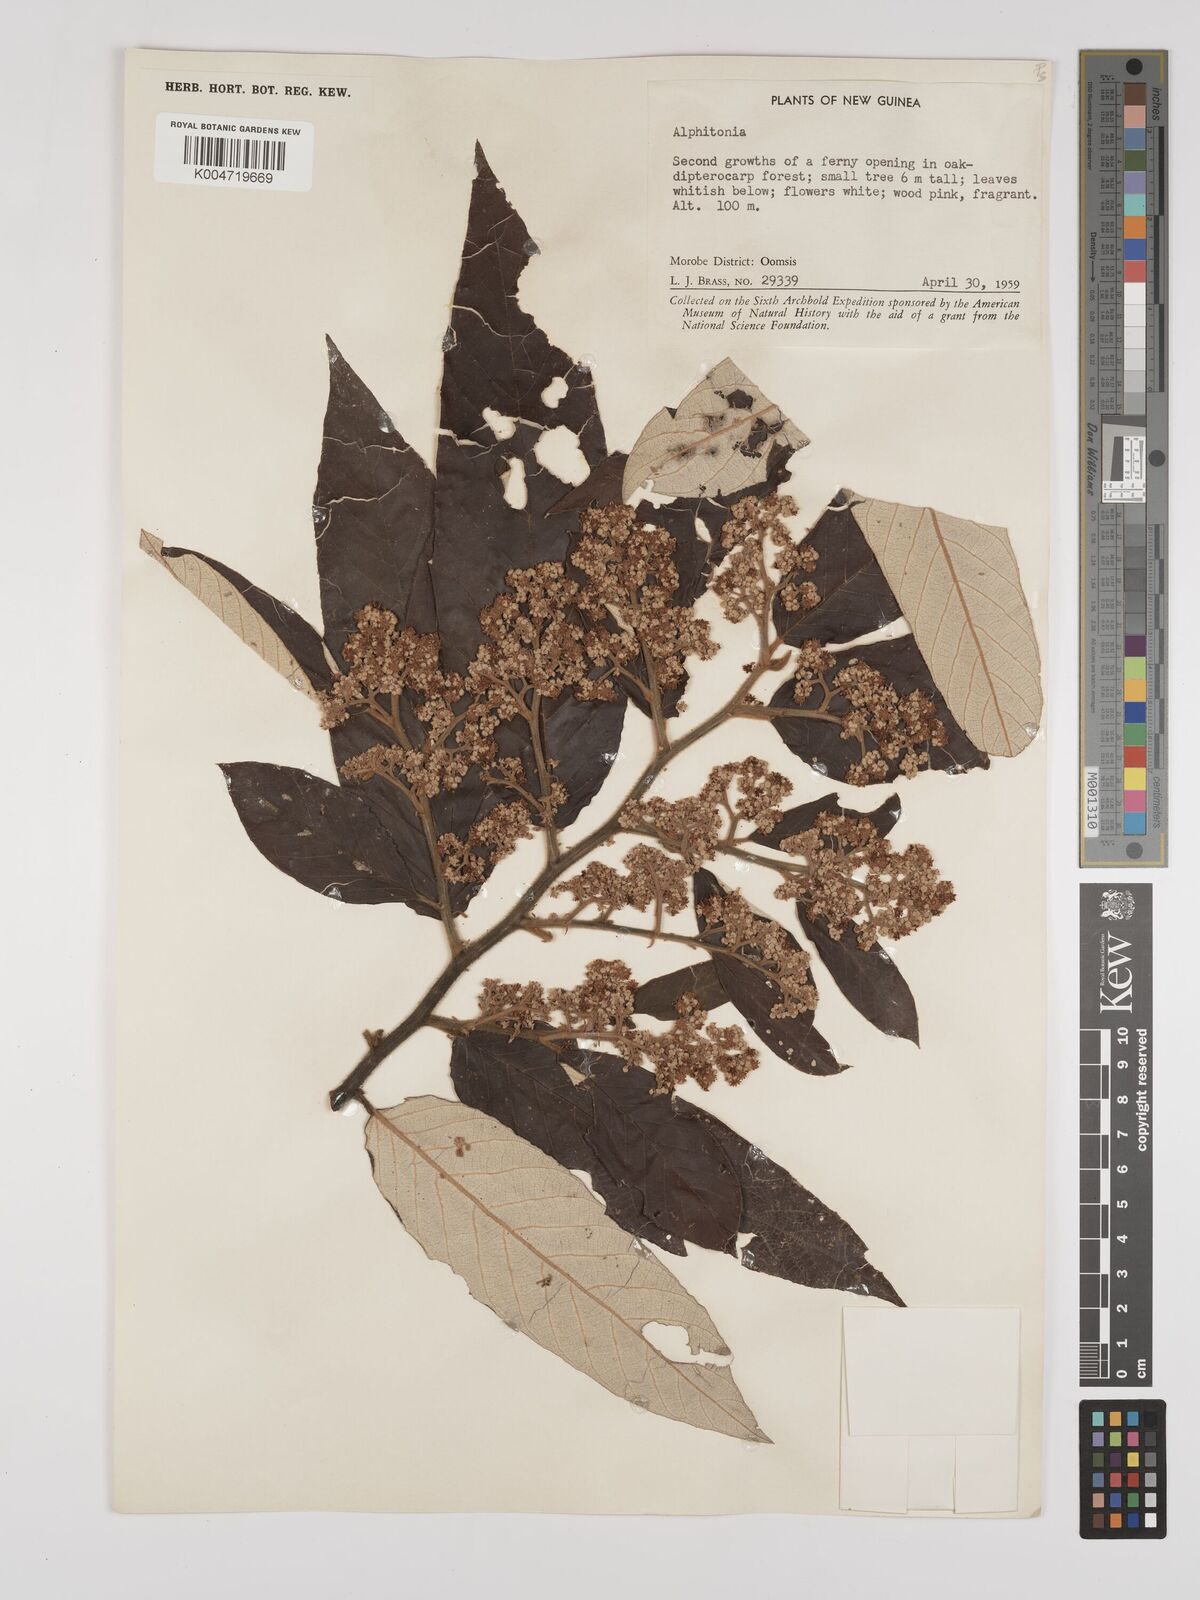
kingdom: Plantae
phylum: Tracheophyta
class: Magnoliopsida
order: Rosales
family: Rhamnaceae
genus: Alphitonia
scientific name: Alphitonia
